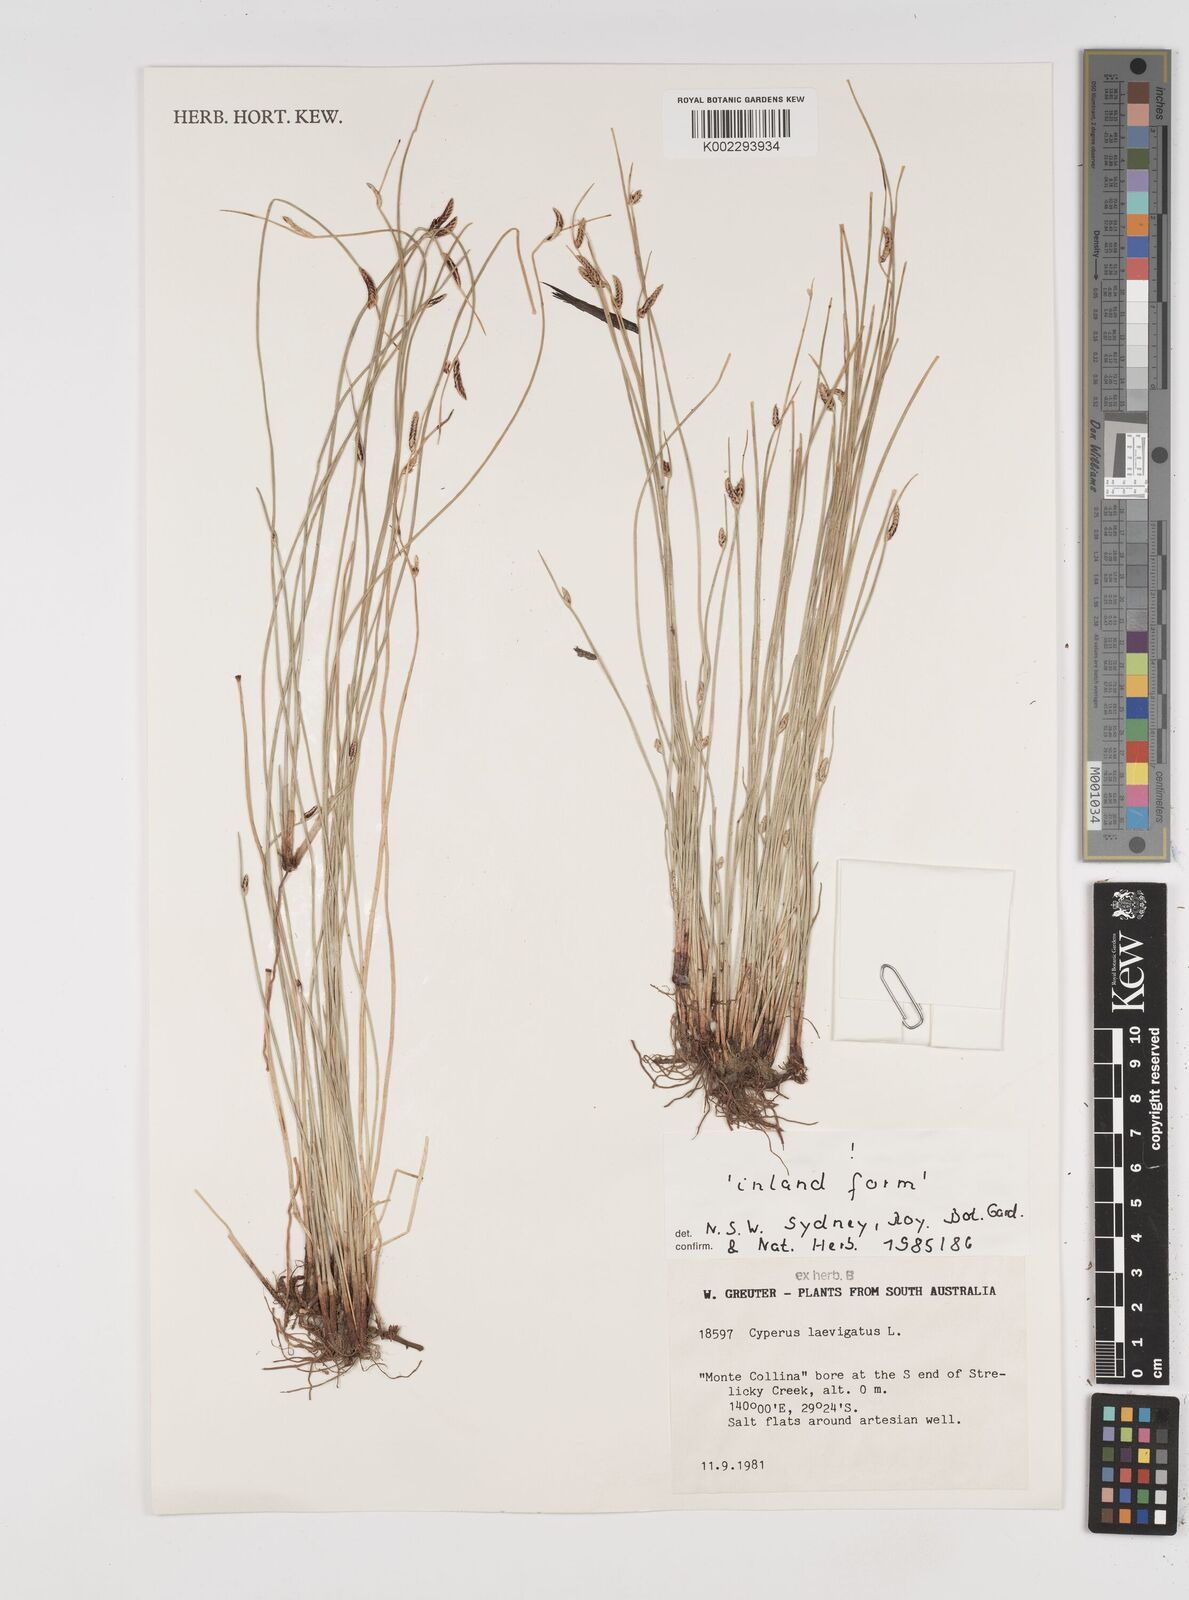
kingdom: Plantae
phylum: Tracheophyta
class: Liliopsida
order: Poales
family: Cyperaceae
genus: Cyperus
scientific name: Cyperus laevigatus
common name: Smooth flat sedge
